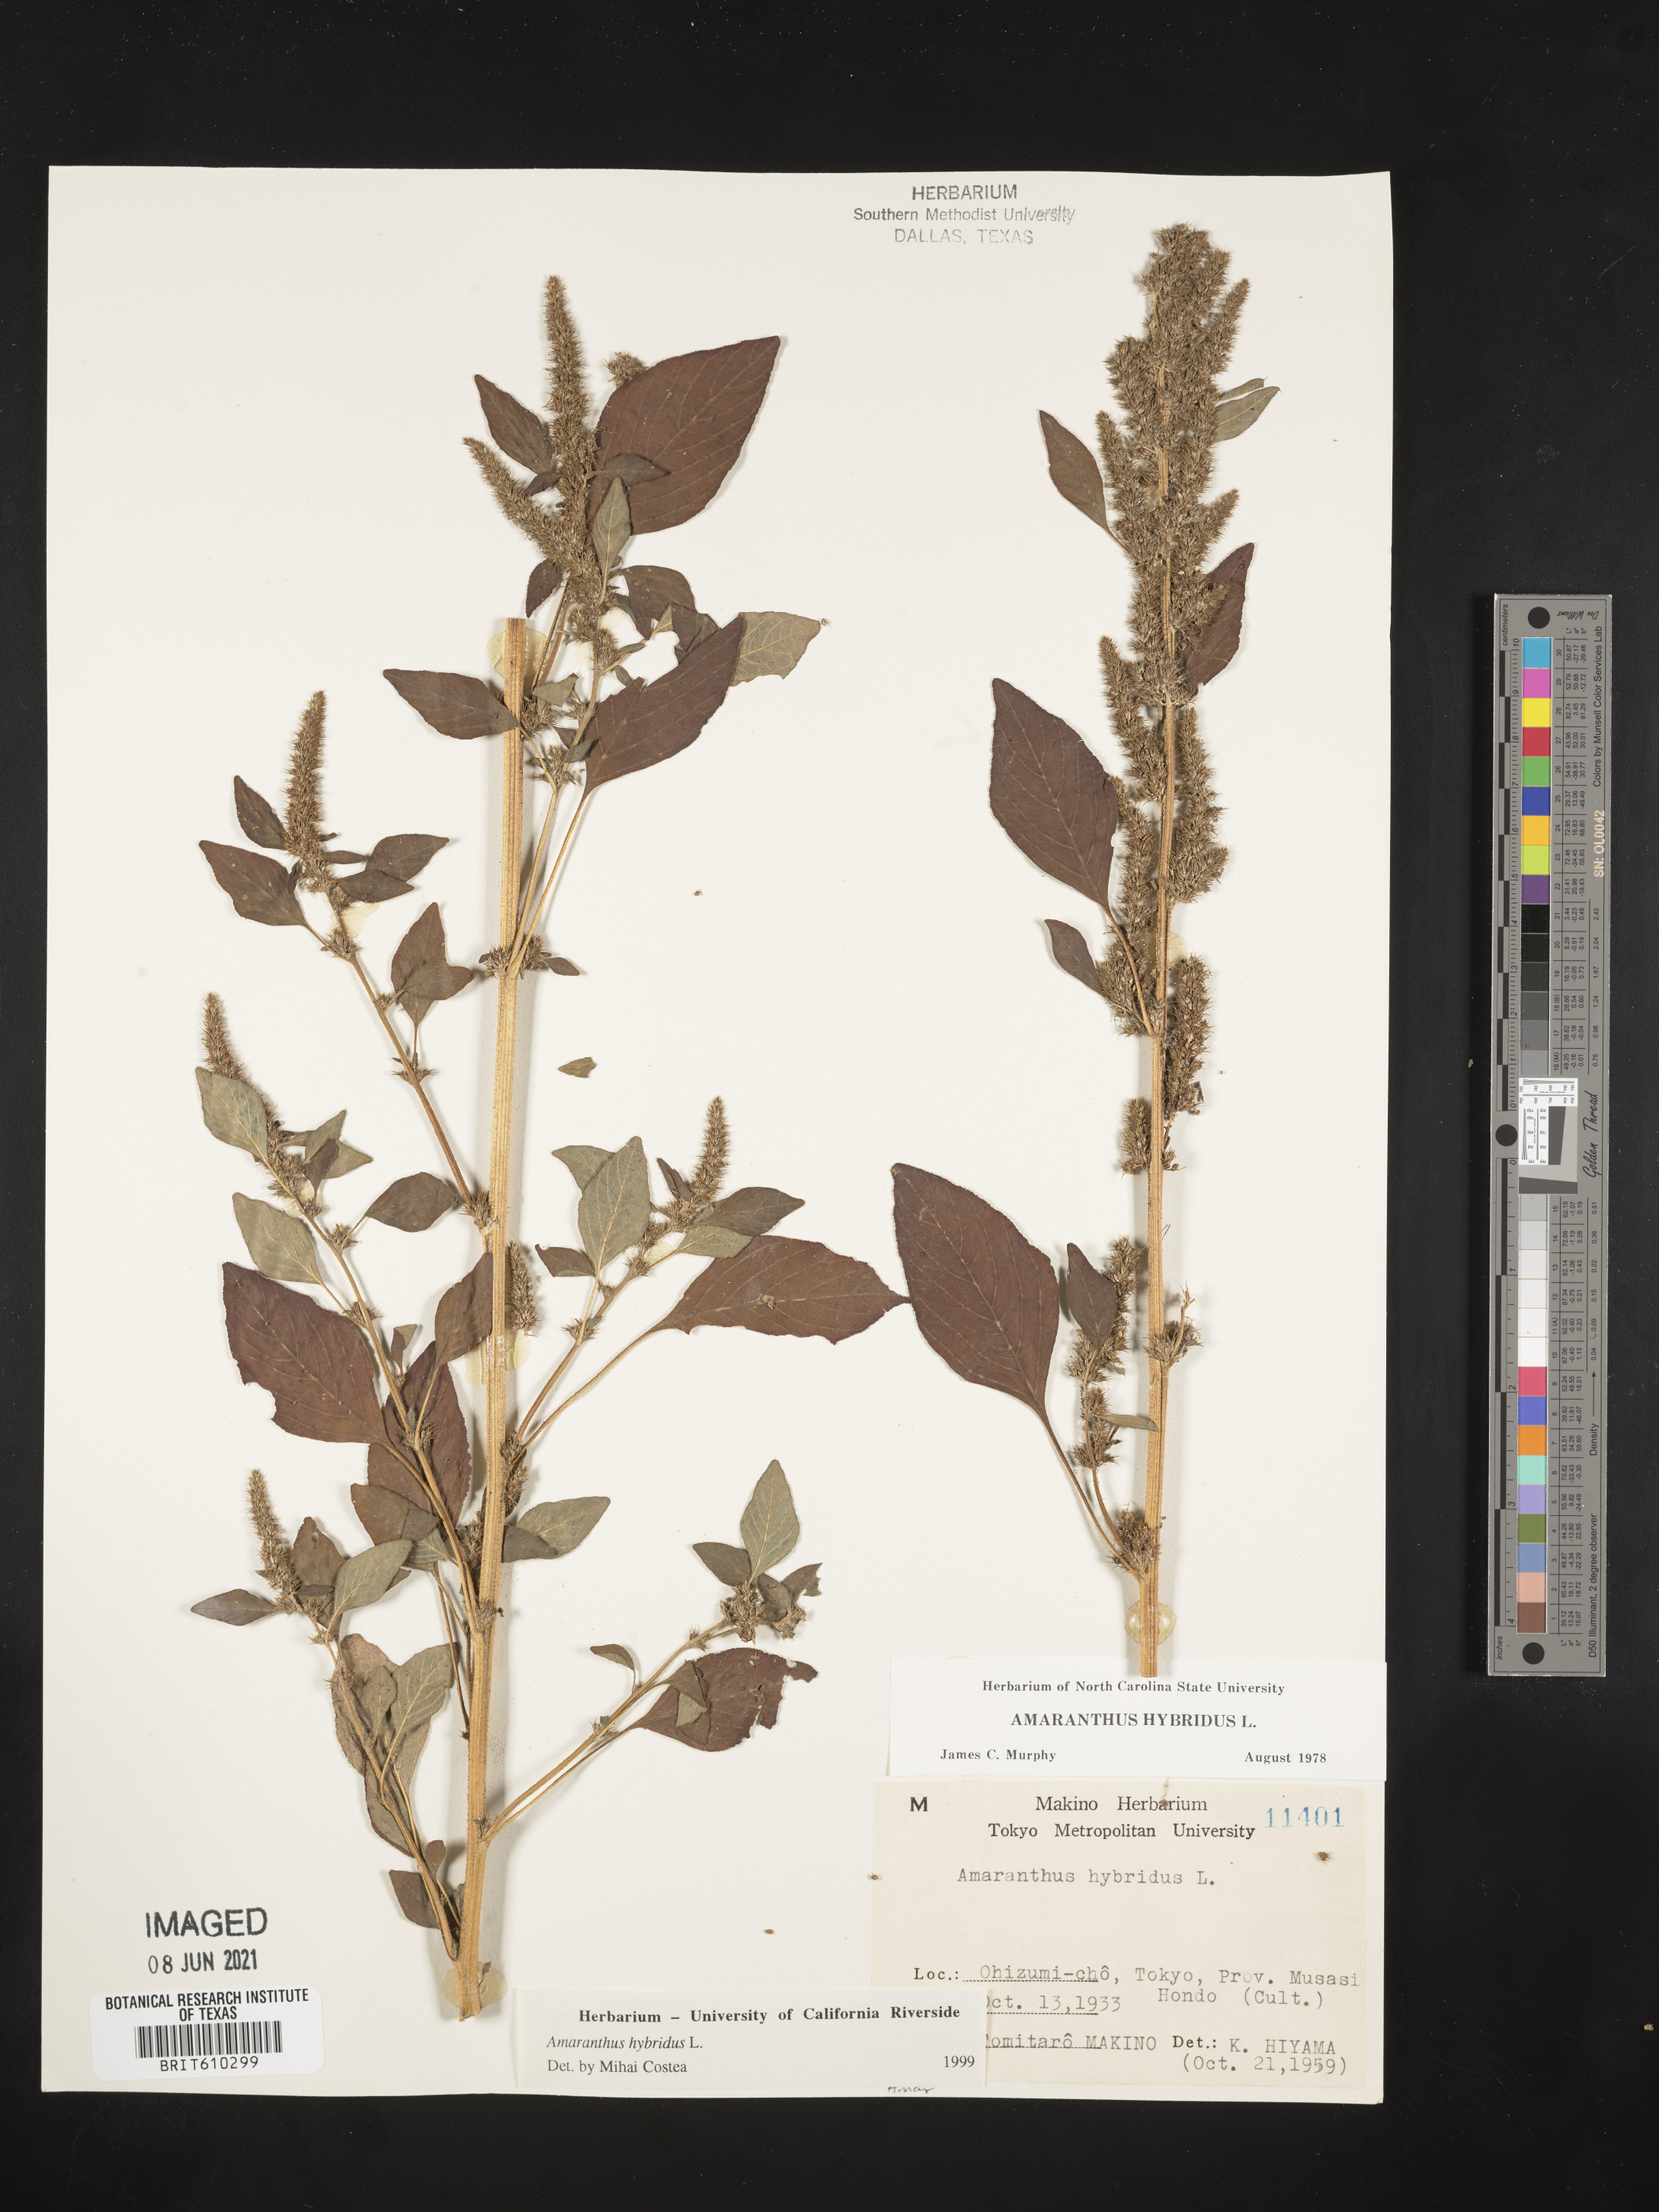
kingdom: Plantae
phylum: Tracheophyta
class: Magnoliopsida
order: Caryophyllales
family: Amaranthaceae
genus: Amaranthus
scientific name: Amaranthus hybridus
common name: Green amaranth
